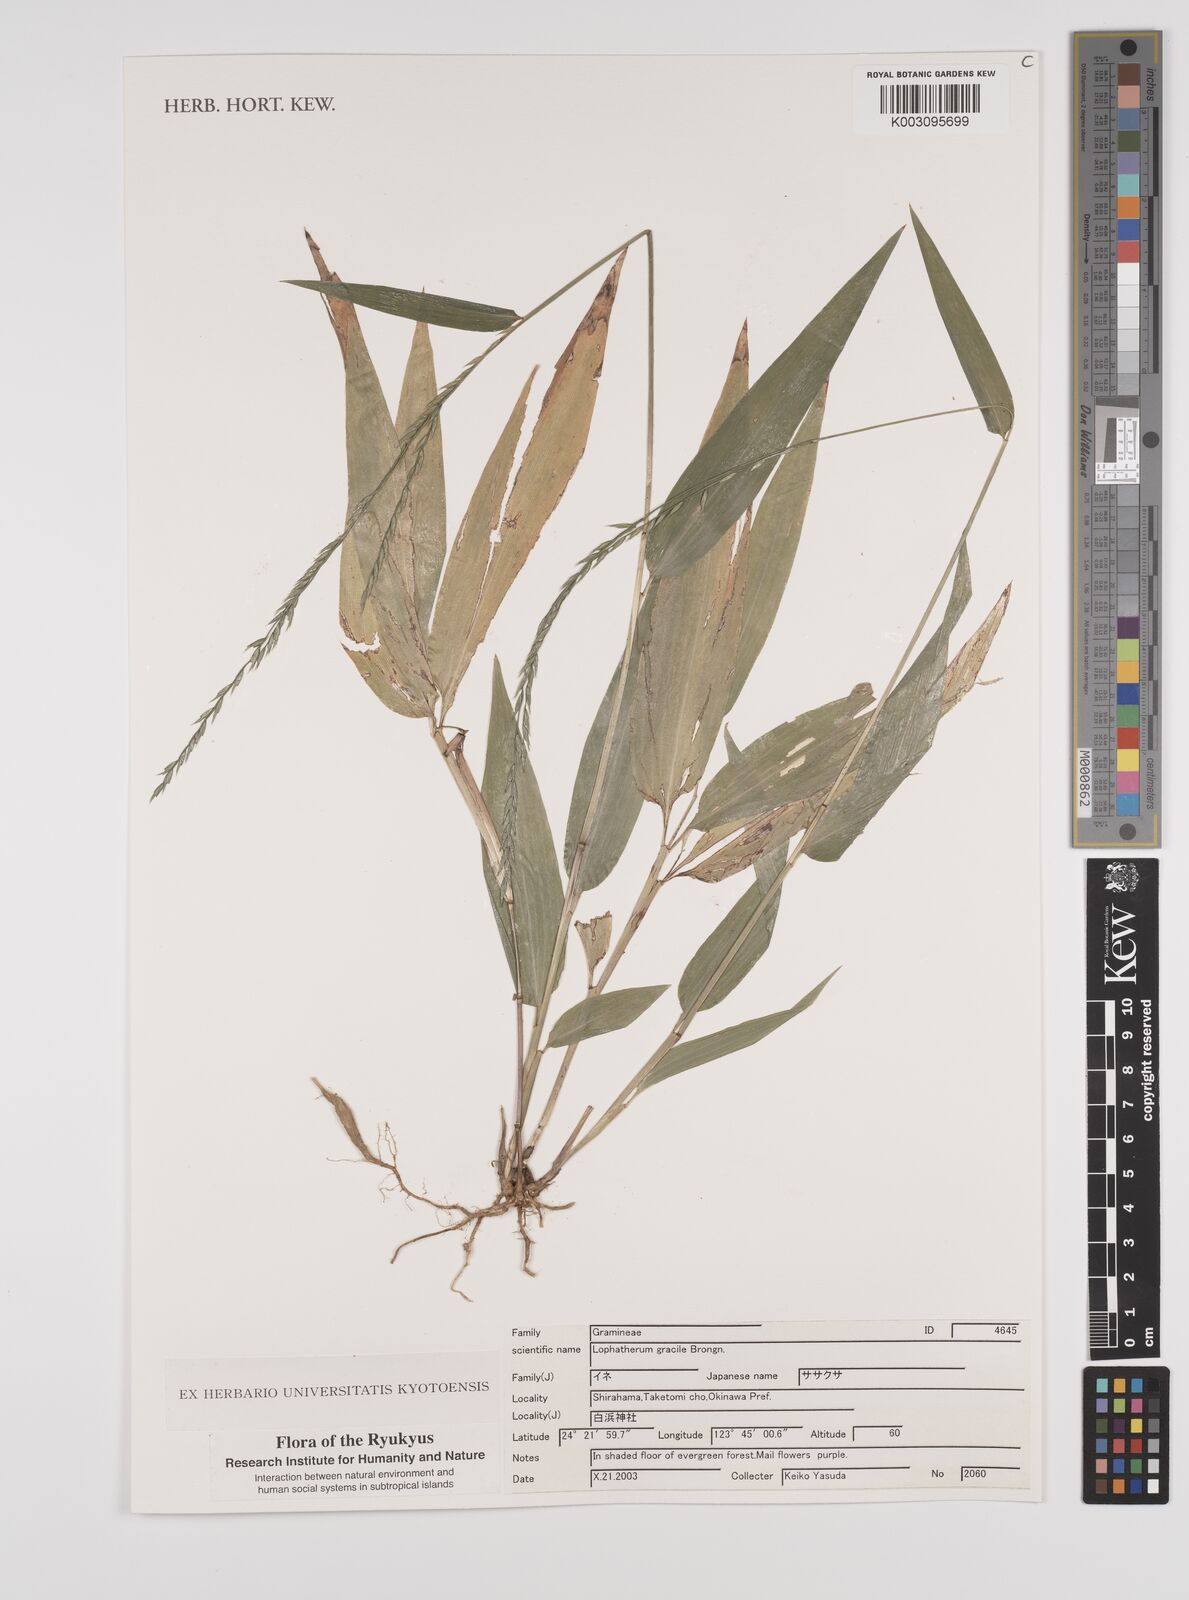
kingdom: Plantae
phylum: Tracheophyta
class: Liliopsida
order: Poales
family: Poaceae
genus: Lophatherum
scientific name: Lophatherum gracile
